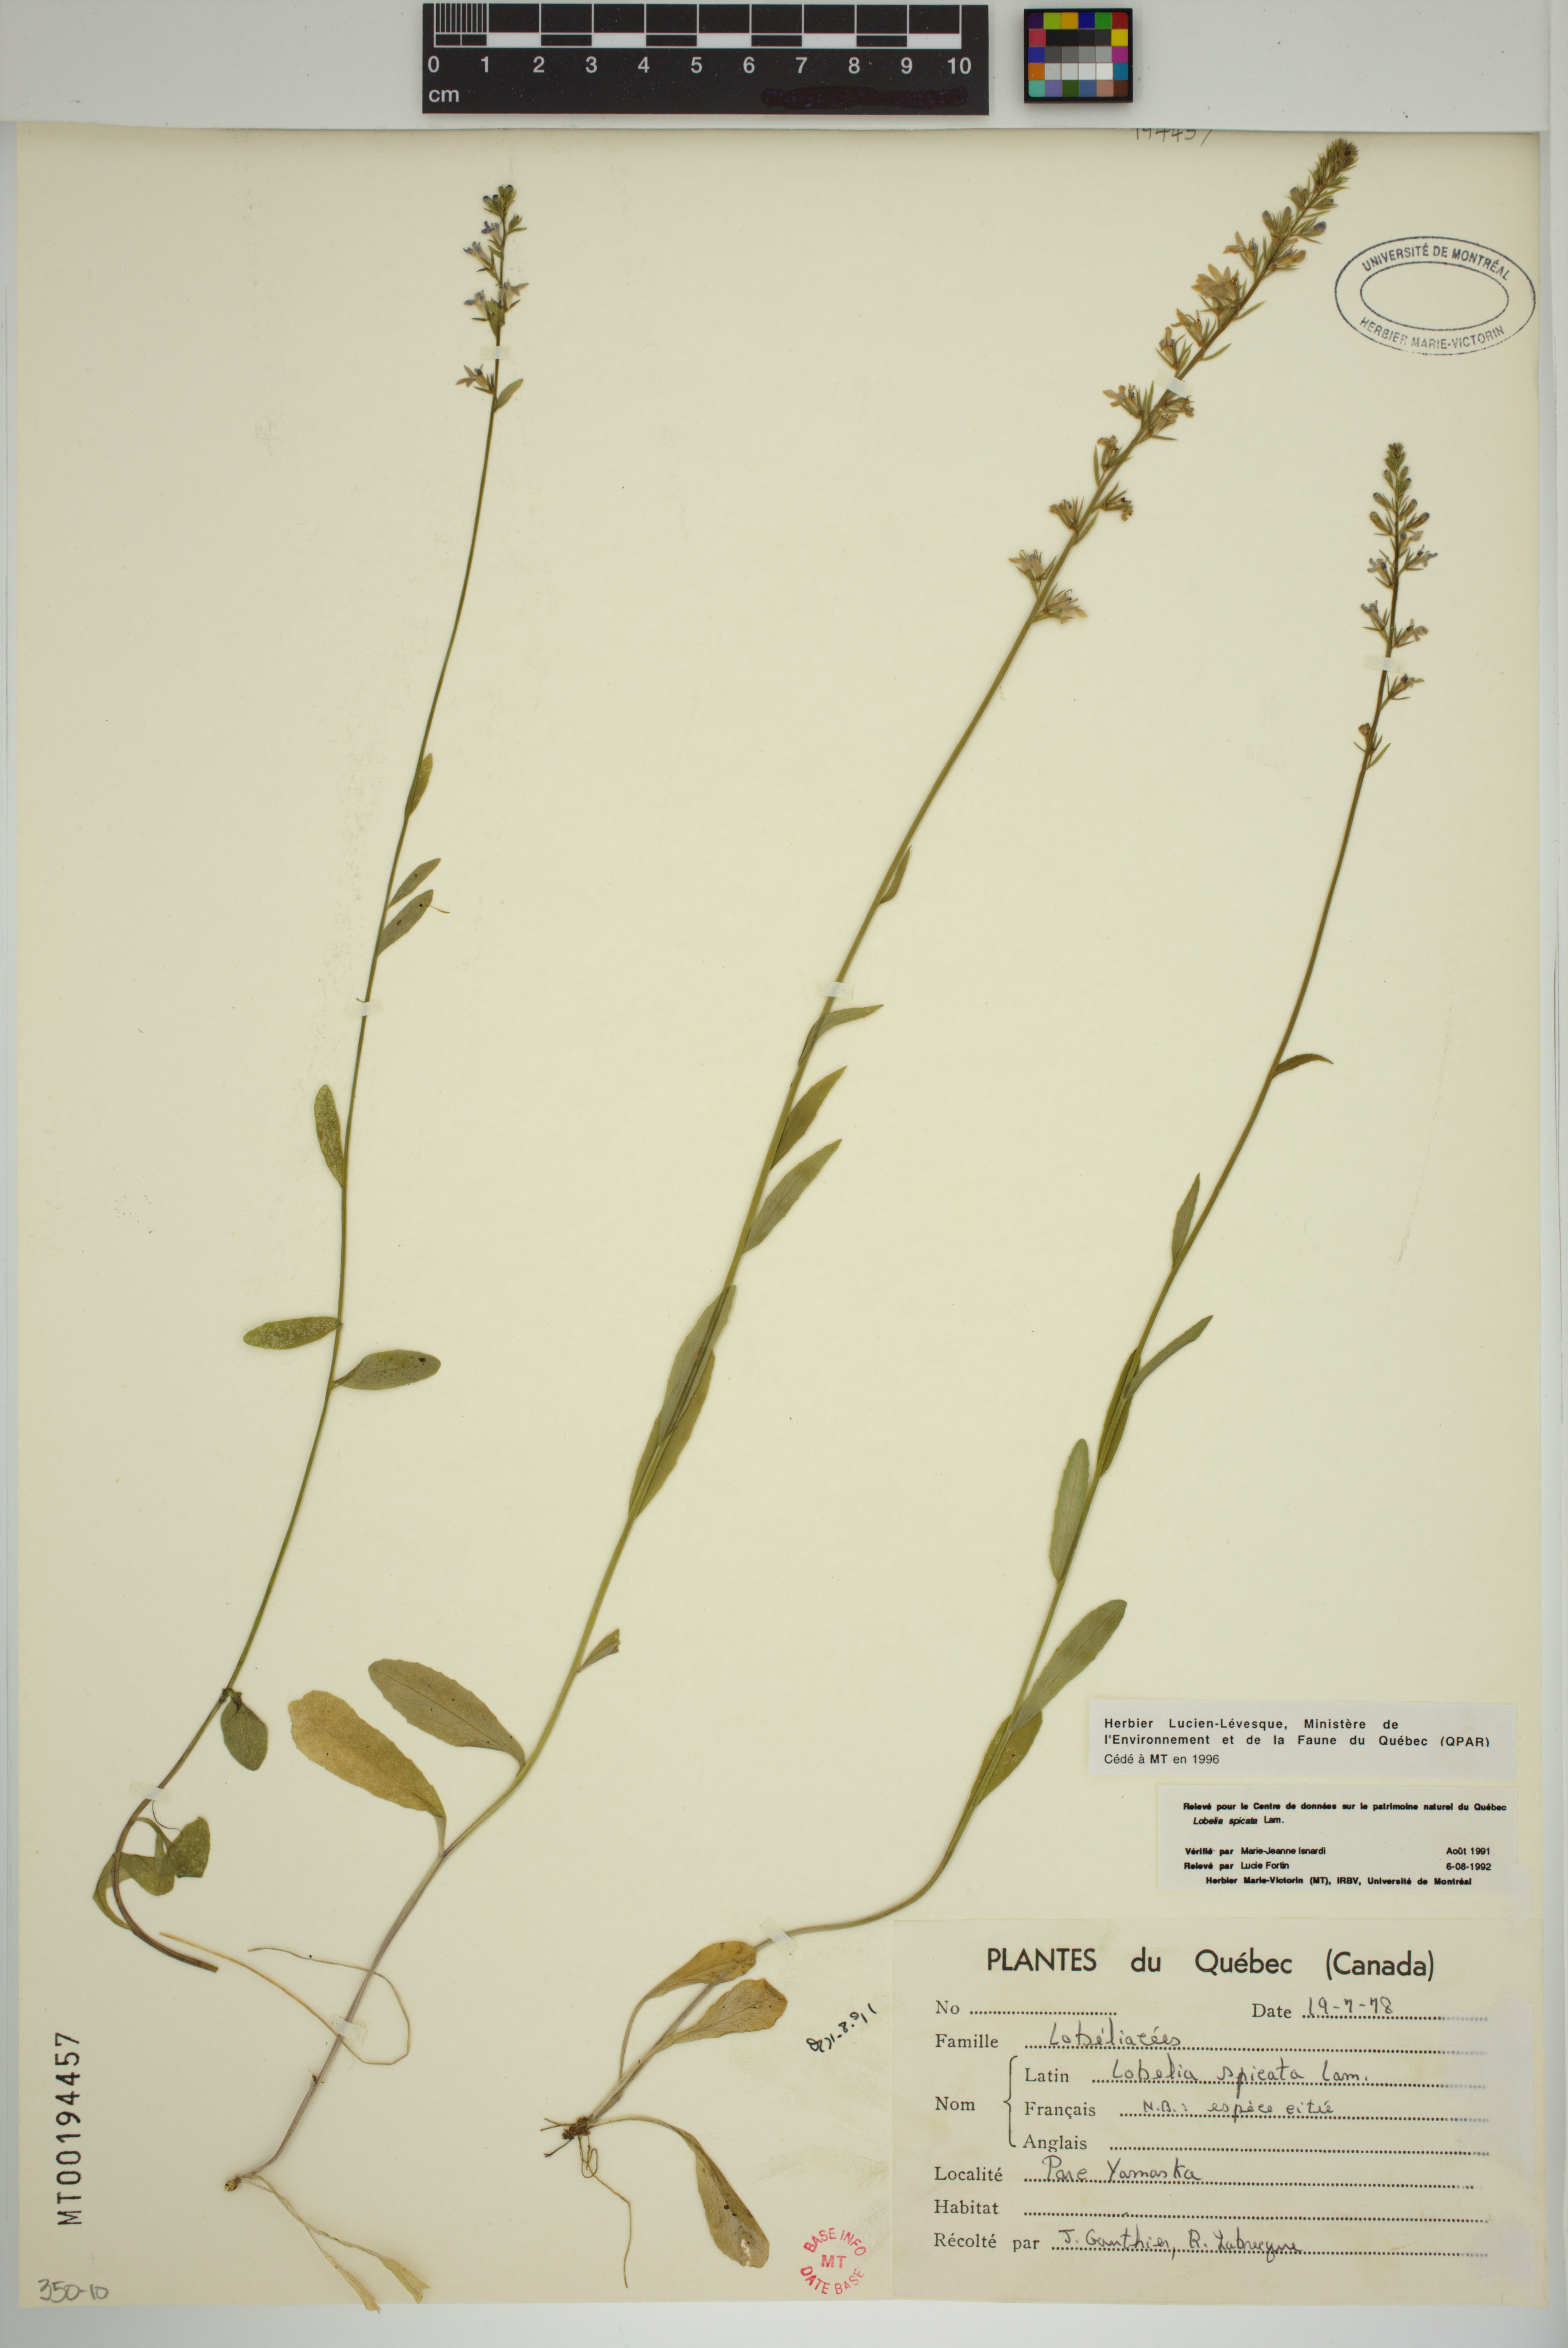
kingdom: Plantae
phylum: Tracheophyta
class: Magnoliopsida
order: Asterales
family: Campanulaceae
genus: Lobelia
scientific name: Lobelia spicata
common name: Pale-spike lobelia
